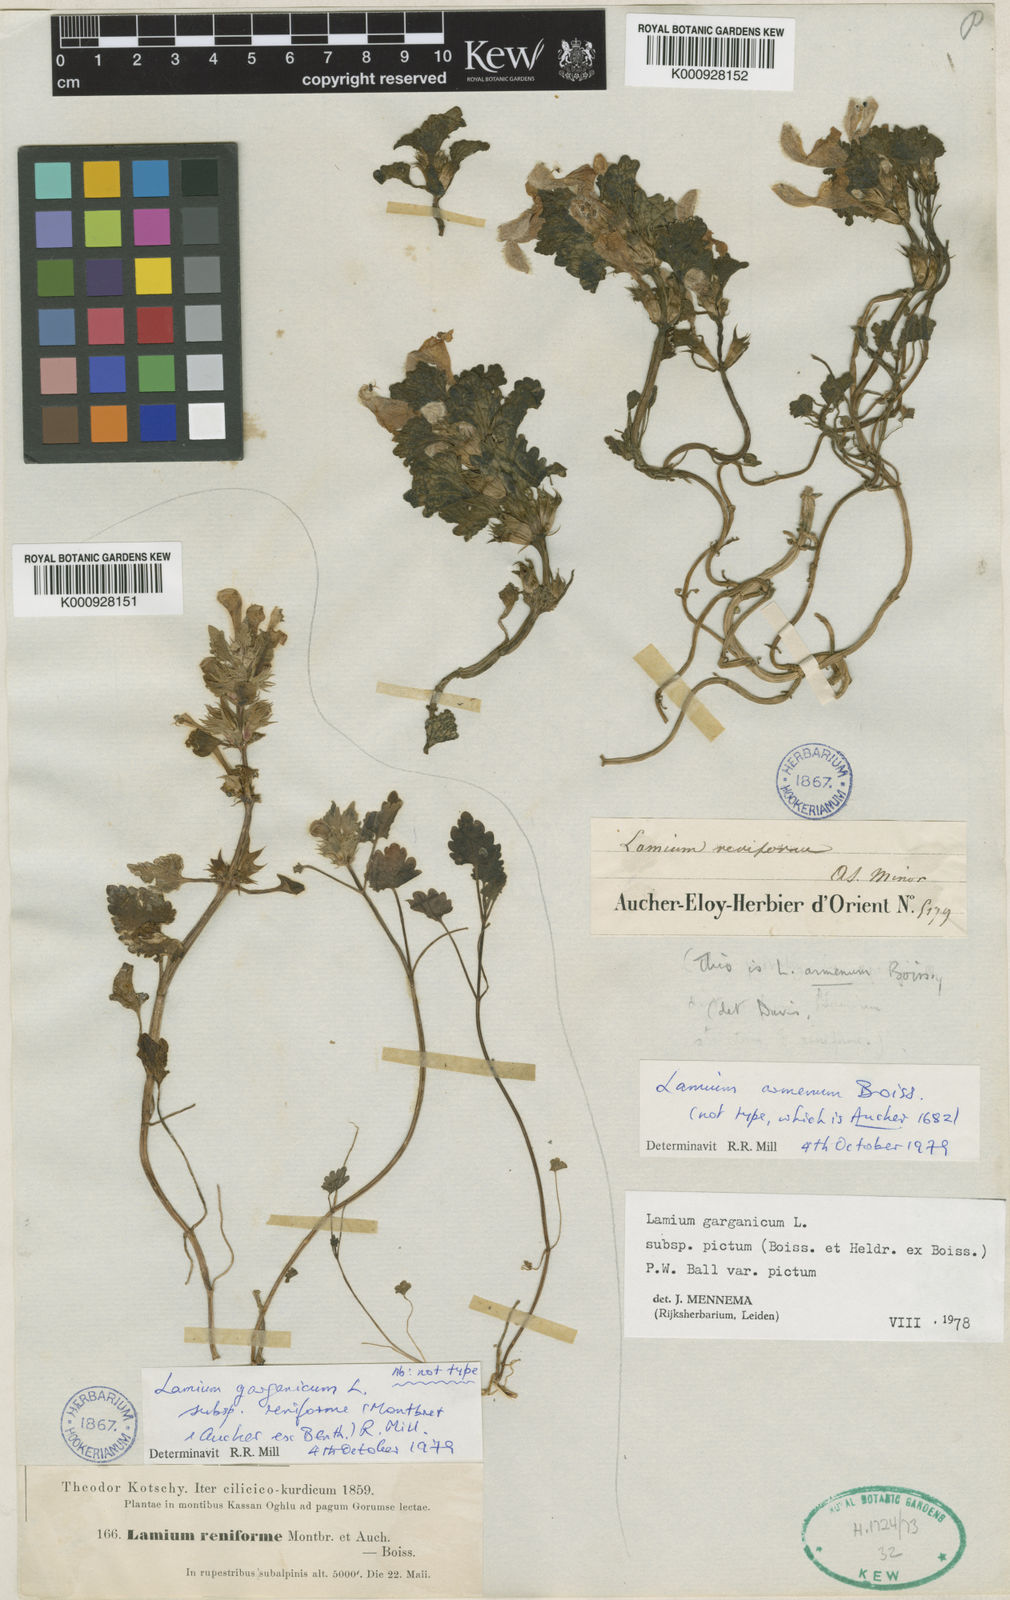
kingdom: Plantae
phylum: Tracheophyta
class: Magnoliopsida
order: Lamiales
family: Lamiaceae
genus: Lamium
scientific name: Lamium garganicum
